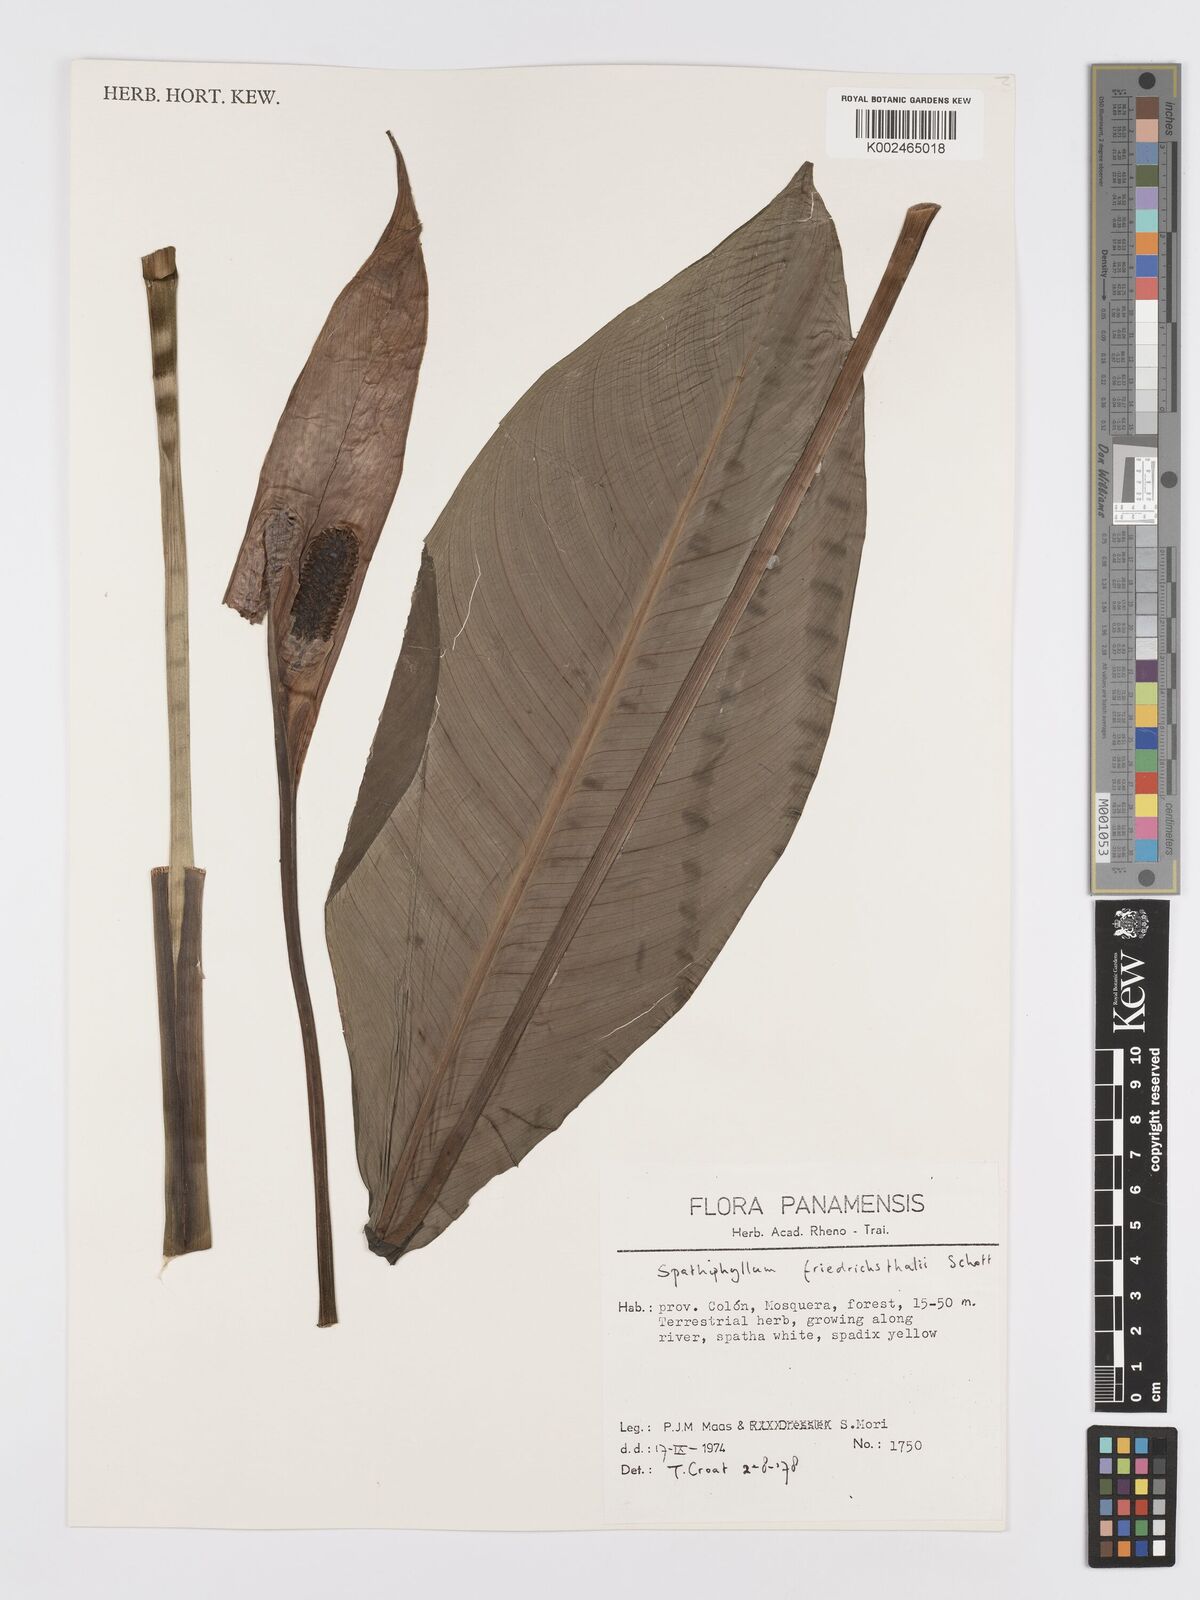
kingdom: Plantae
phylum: Tracheophyta
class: Liliopsida
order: Alismatales
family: Araceae
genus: Spathiphyllum
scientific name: Spathiphyllum friedrichsthalii
